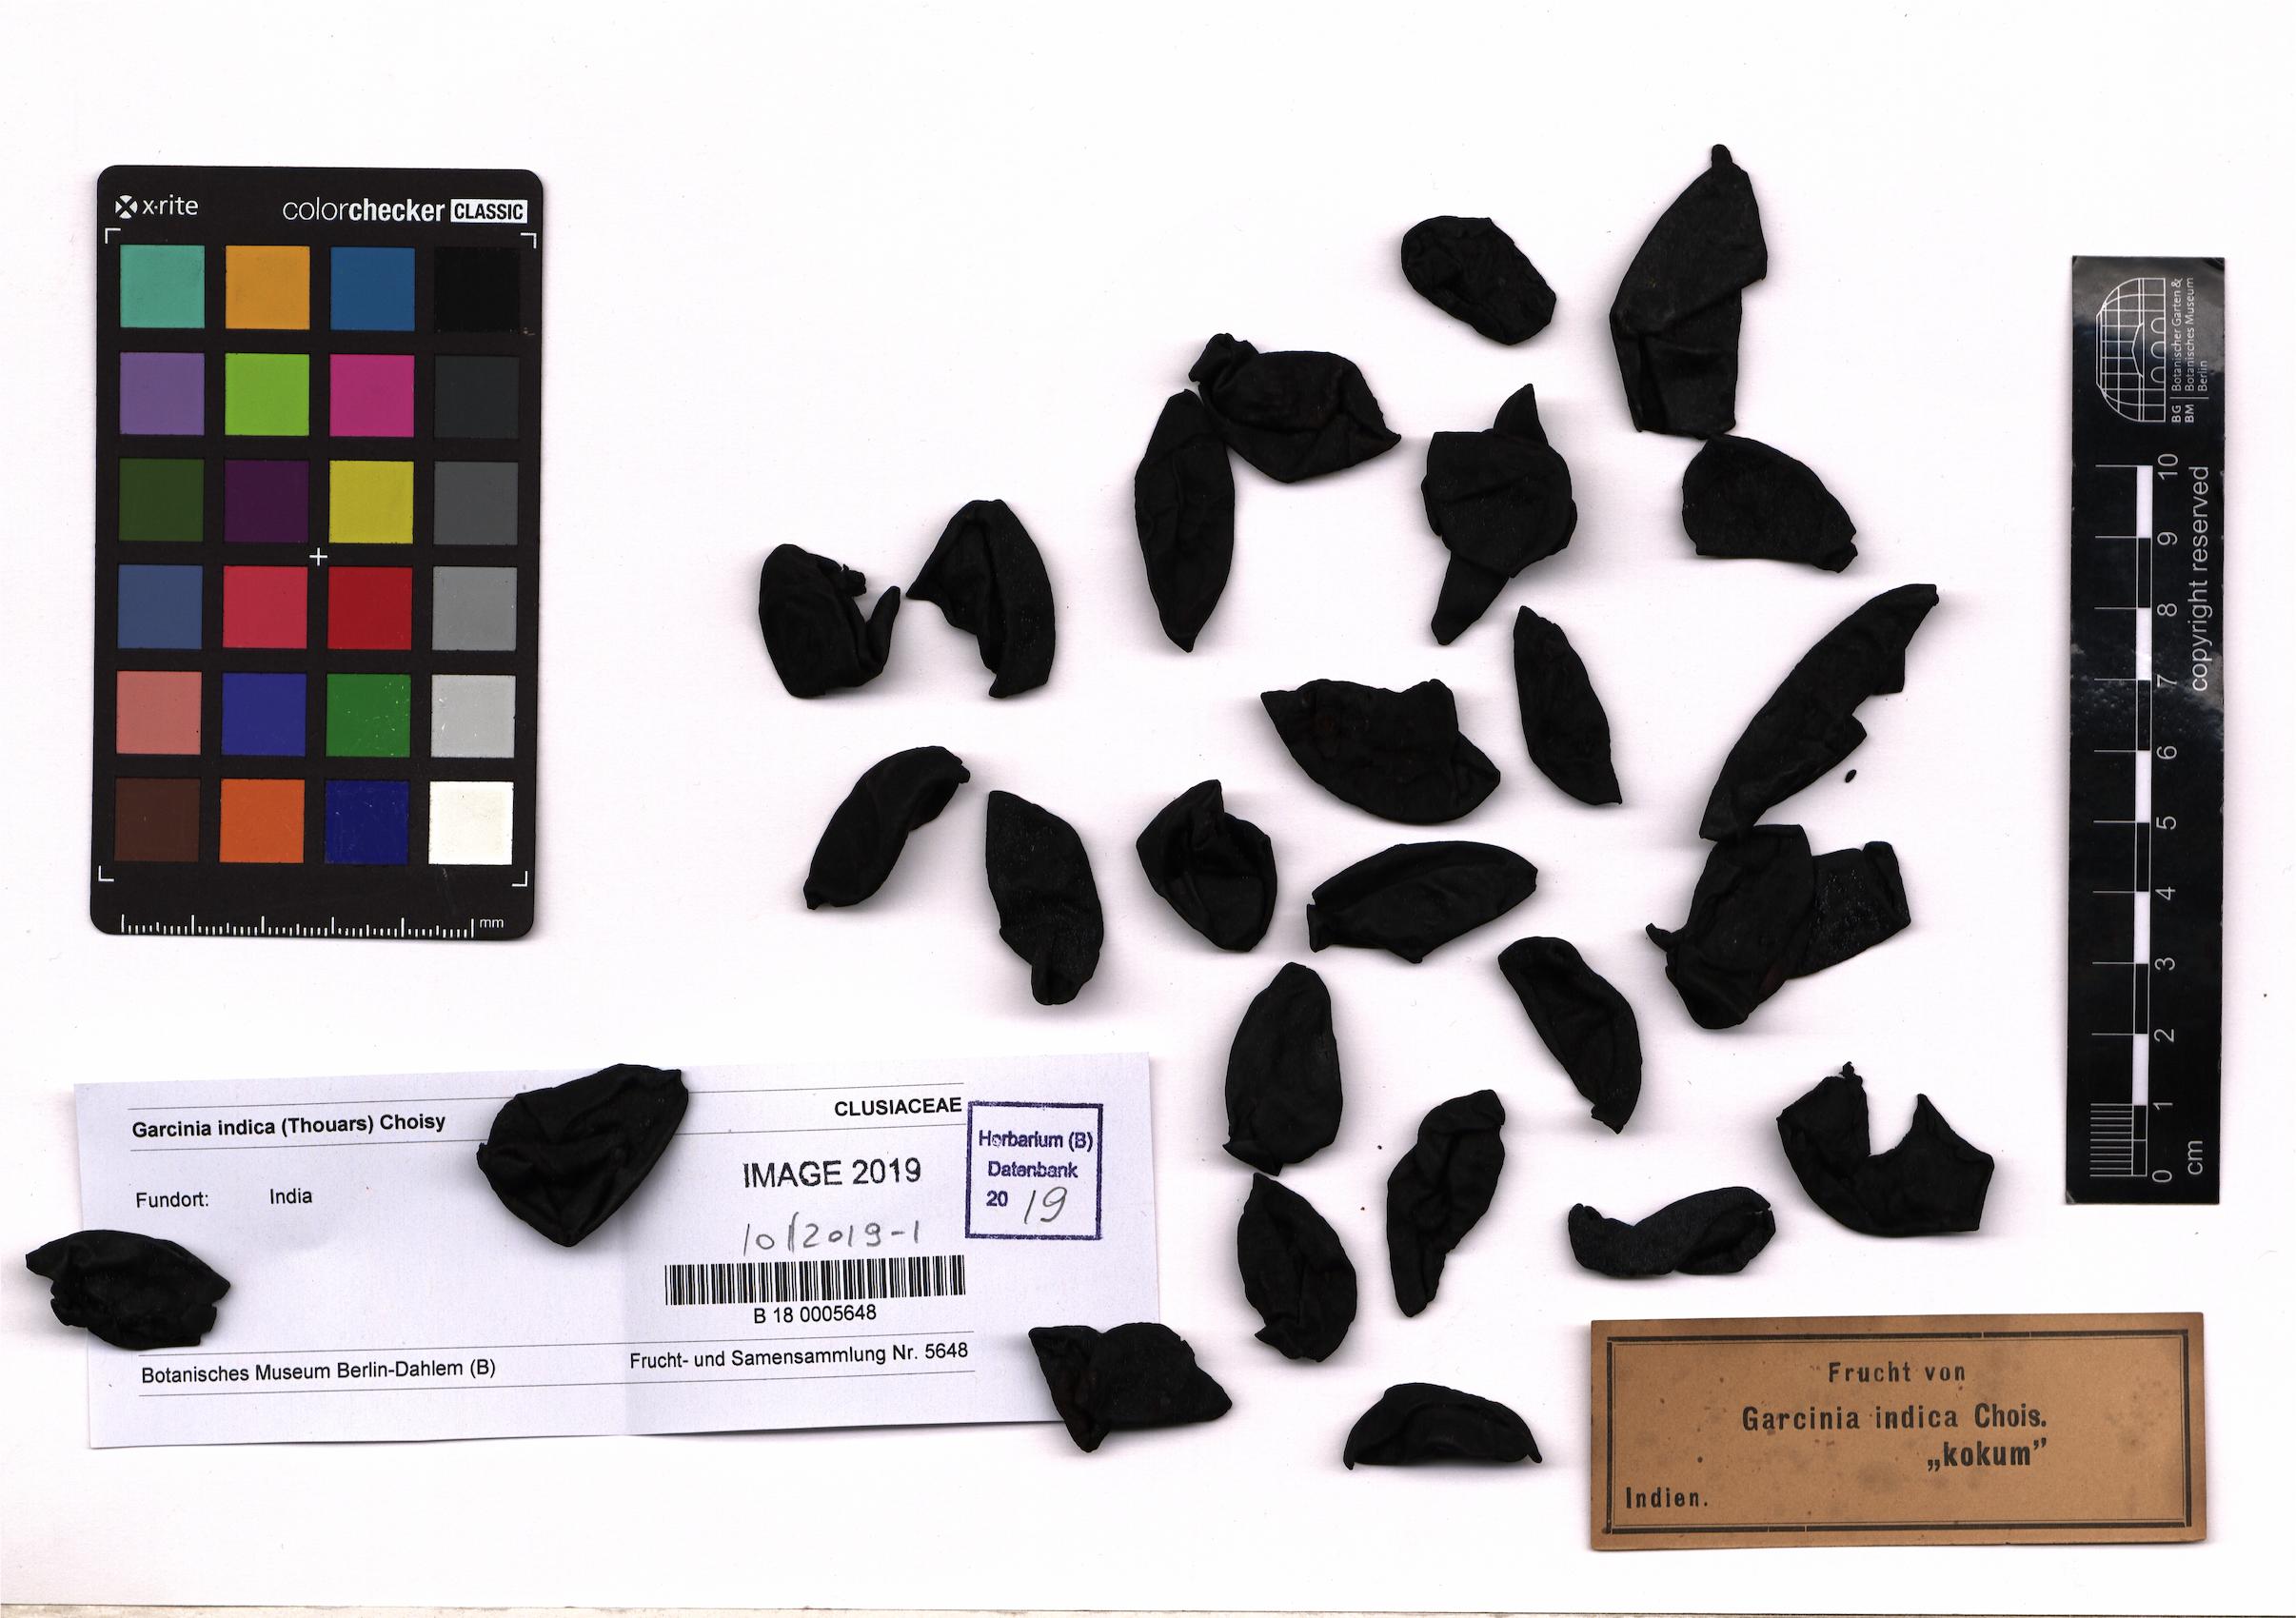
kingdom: Plantae
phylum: Tracheophyta
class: Magnoliopsida
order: Malpighiales
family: Clusiaceae
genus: Garcinia
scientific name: Garcinia indica
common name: Goa-butter
